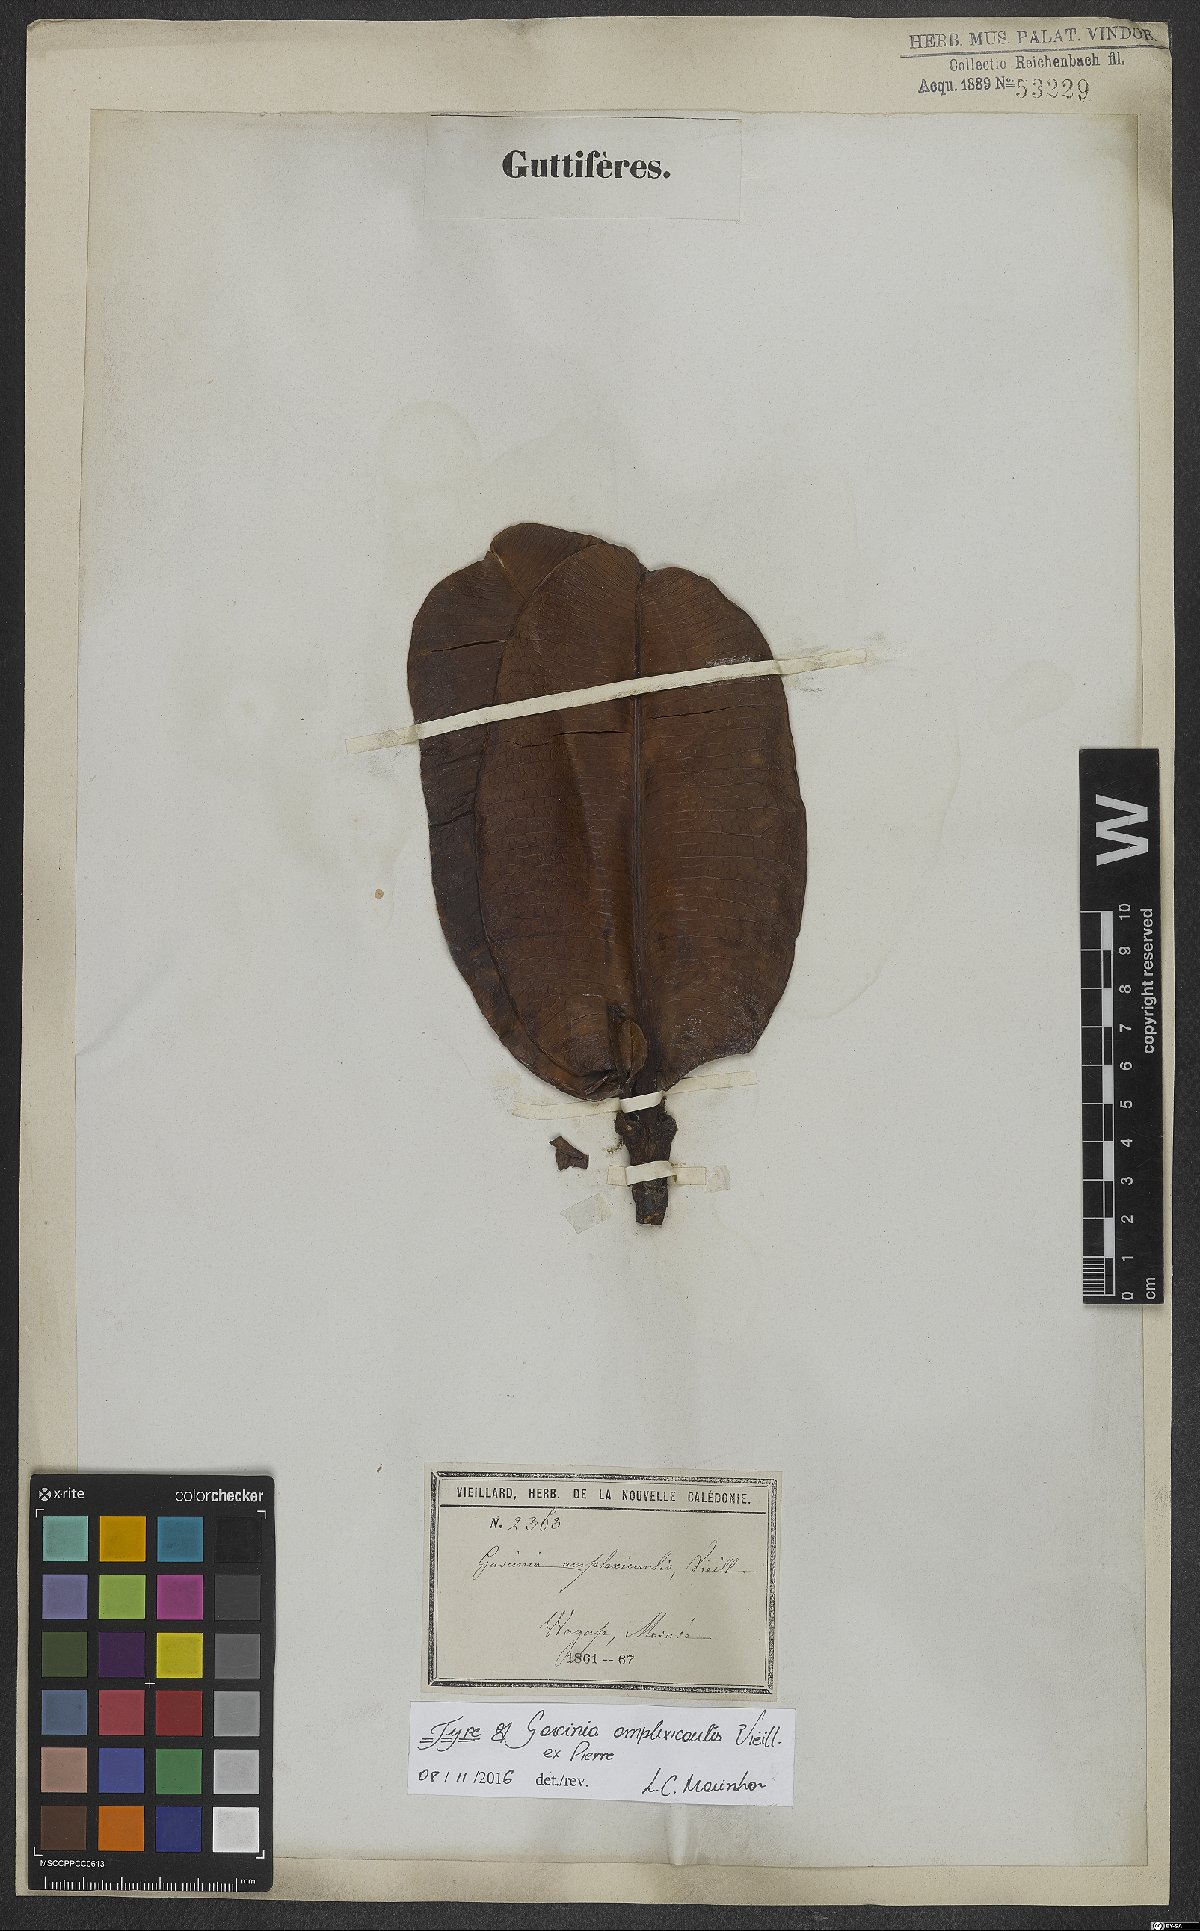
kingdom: Plantae
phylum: Tracheophyta
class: Magnoliopsida
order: Malpighiales
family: Clusiaceae
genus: Garcinia
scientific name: Garcinia amplexicaulis
